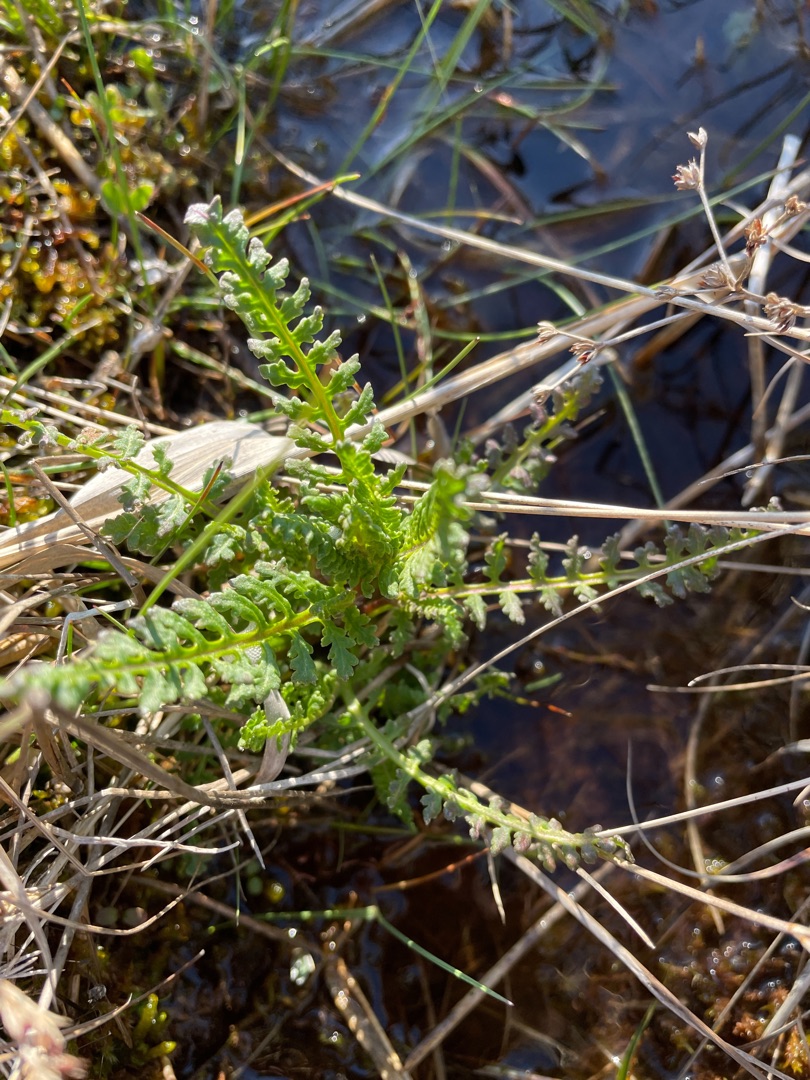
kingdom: Plantae
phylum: Tracheophyta
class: Magnoliopsida
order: Lamiales
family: Orobanchaceae
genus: Pedicularis
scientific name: Pedicularis palustris
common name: Eng-troldurt
